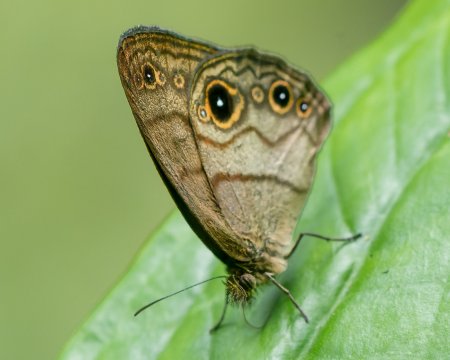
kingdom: Animalia
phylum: Arthropoda
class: Insecta
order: Lepidoptera
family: Nymphalidae
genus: Hermeuptychia
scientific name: Hermeuptychia harmonia
